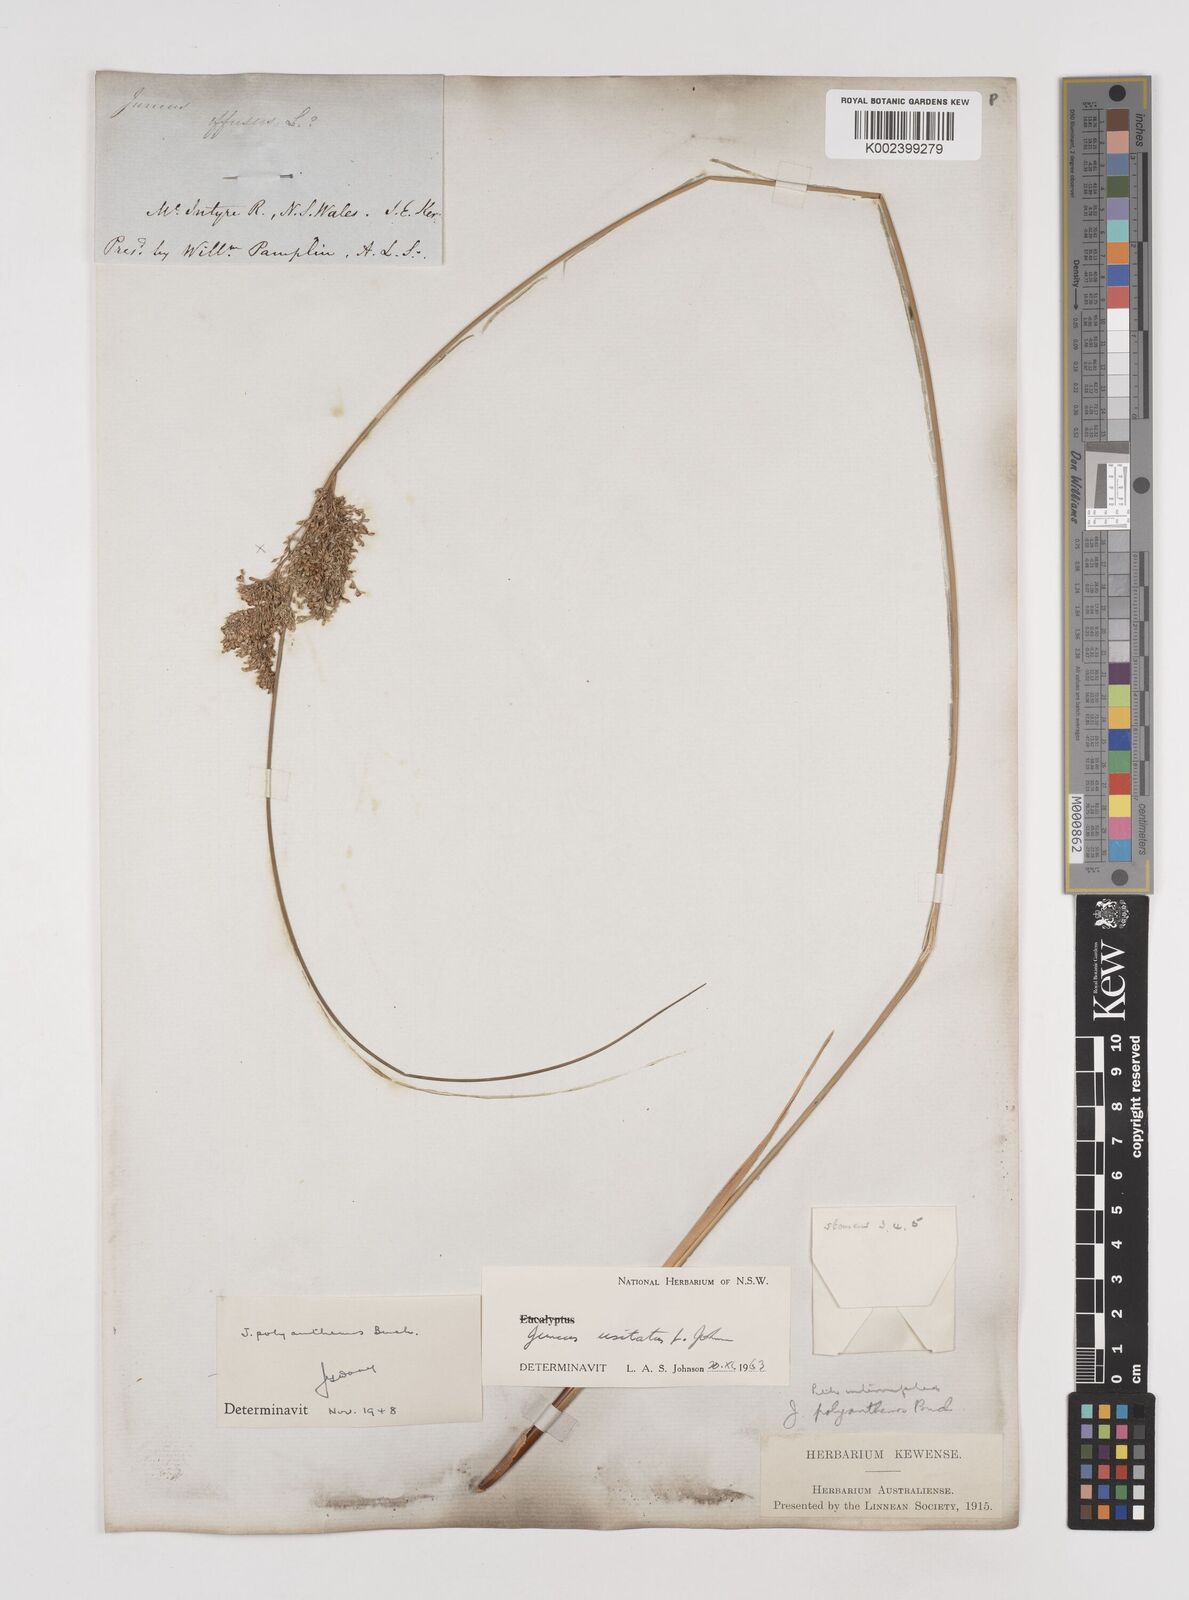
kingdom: Plantae
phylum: Tracheophyta
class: Liliopsida
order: Poales
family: Juncaceae
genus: Juncus
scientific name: Juncus usitatus
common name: Rush
